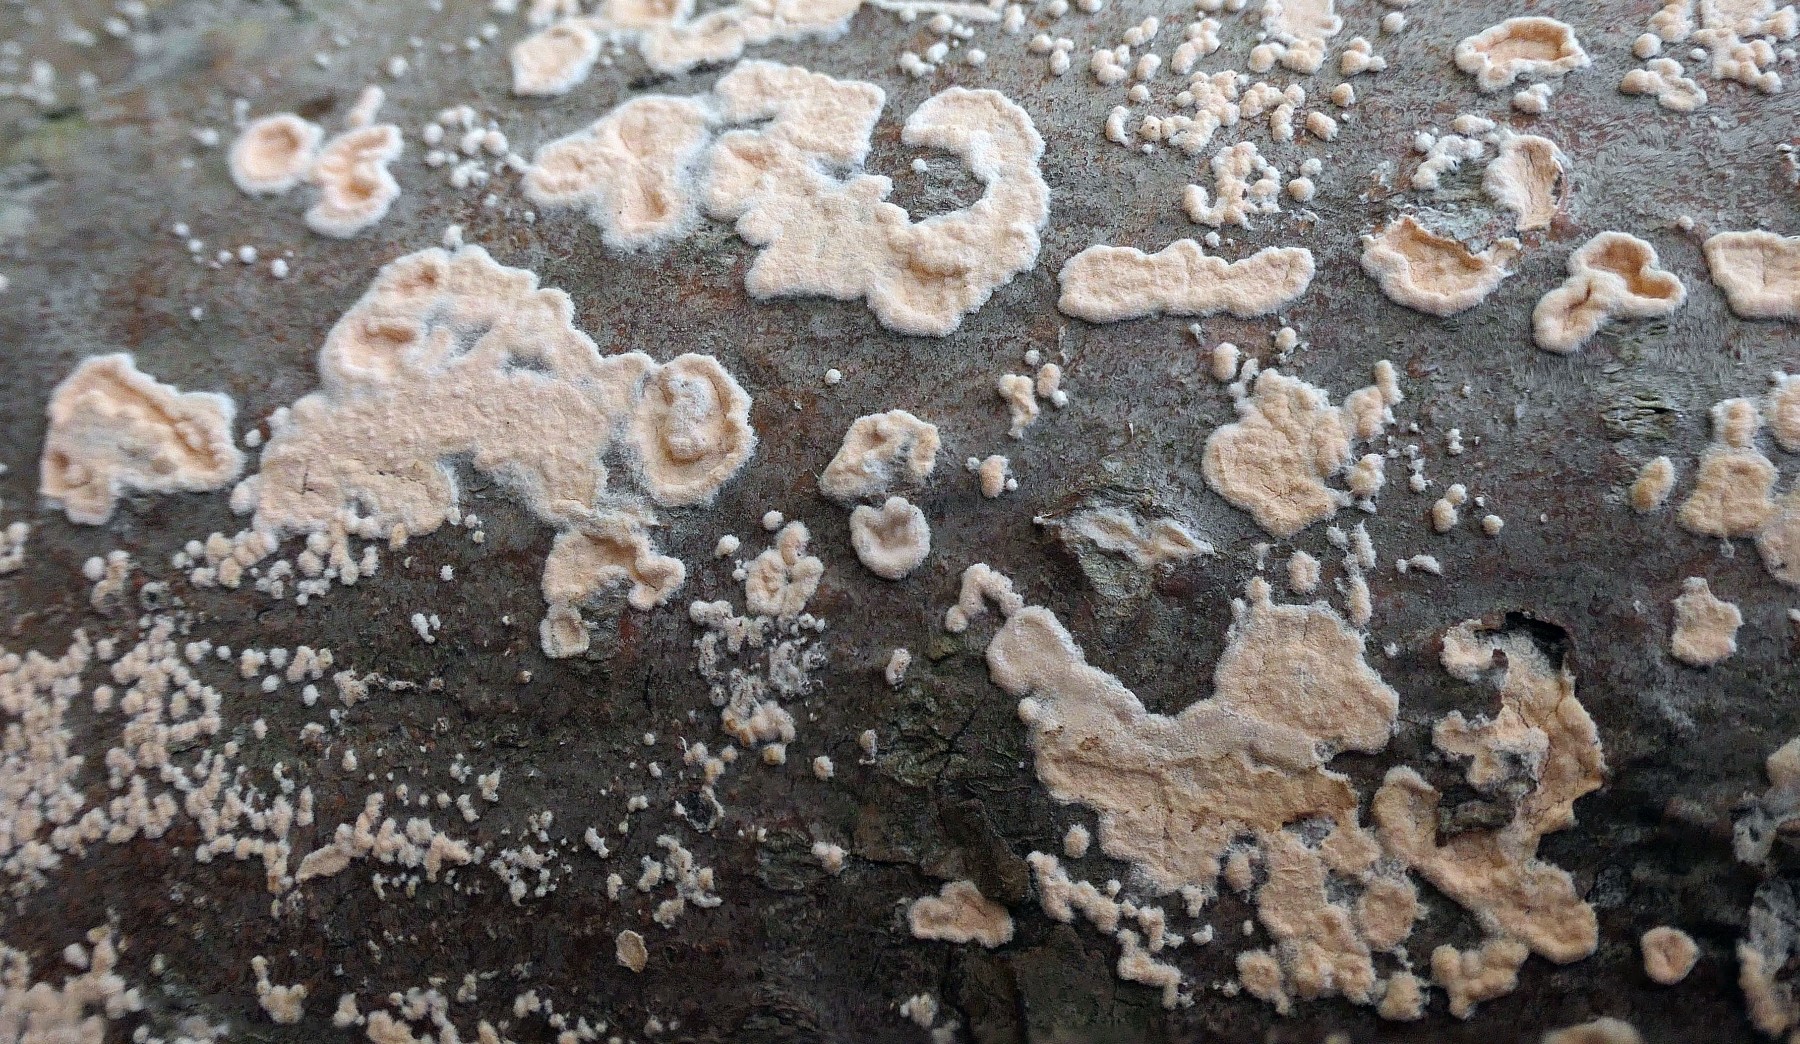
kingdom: Fungi
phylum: Basidiomycota
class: Agaricomycetes
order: Agaricales
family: Physalacriaceae
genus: Cylindrobasidium
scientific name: Cylindrobasidium evolvens
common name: sprækkehinde
